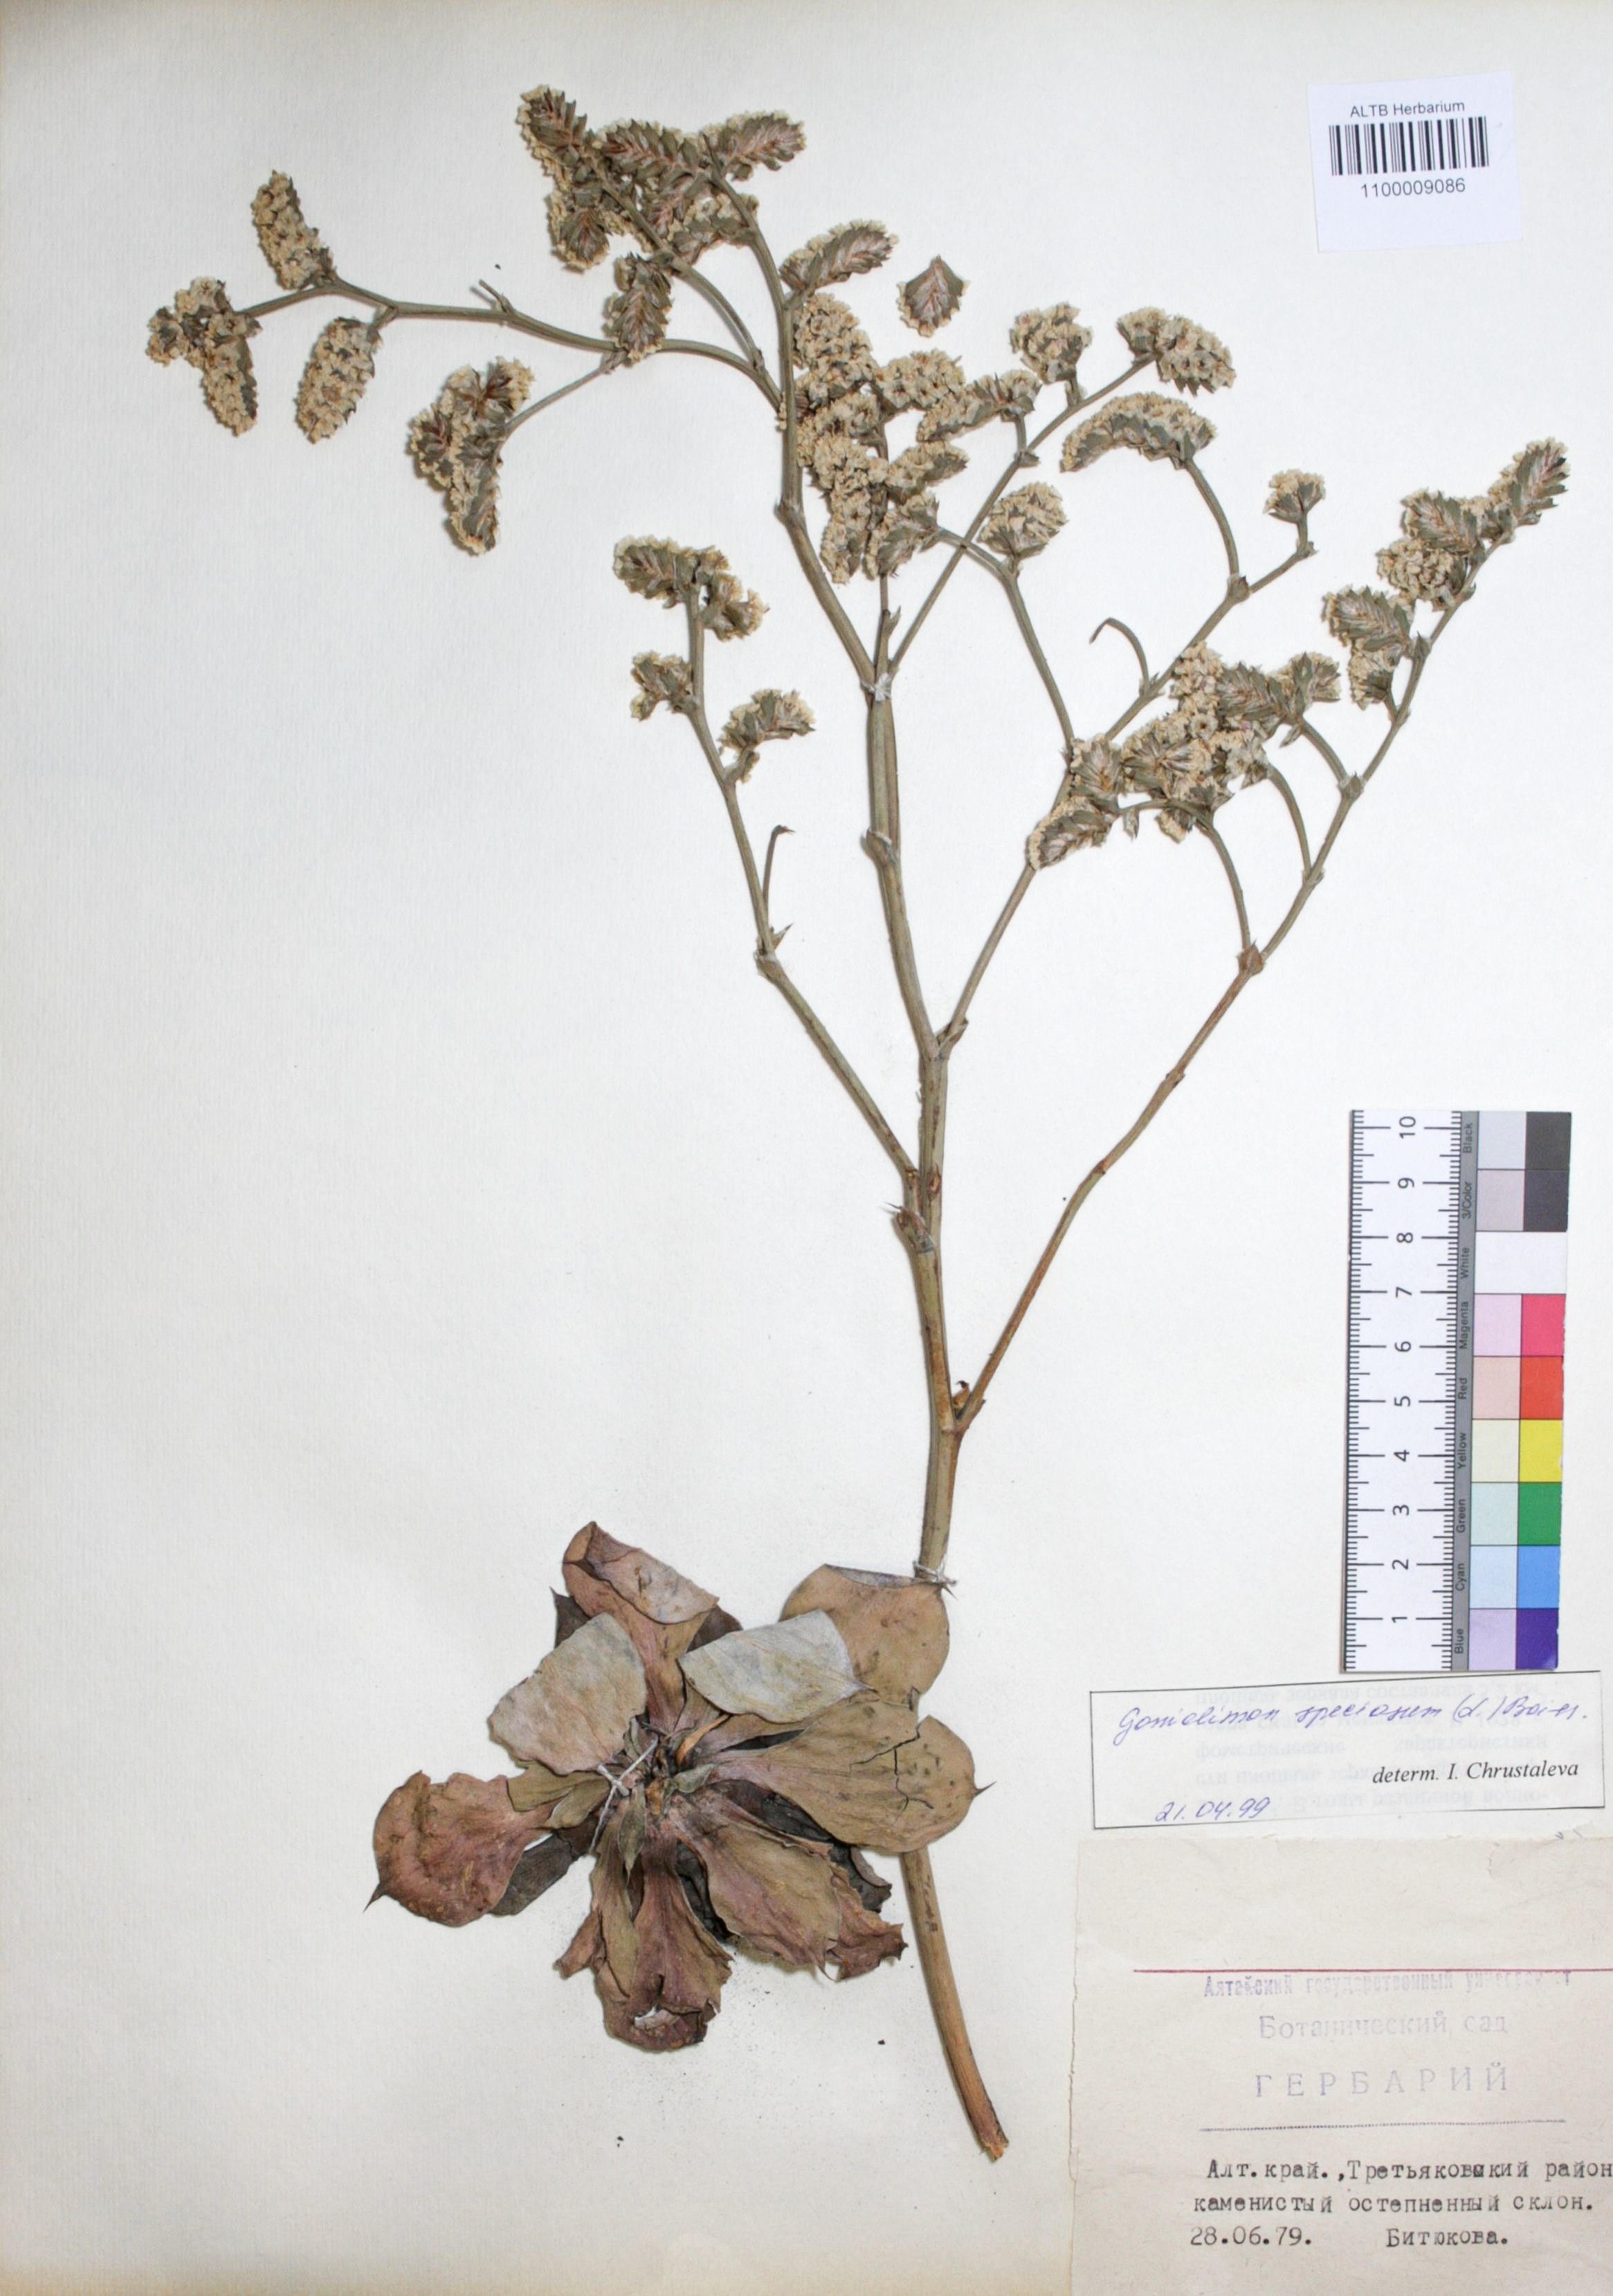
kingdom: Plantae
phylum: Tracheophyta
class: Magnoliopsida
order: Caryophyllales
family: Plumbaginaceae
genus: Goniolimon
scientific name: Goniolimon speciosum
